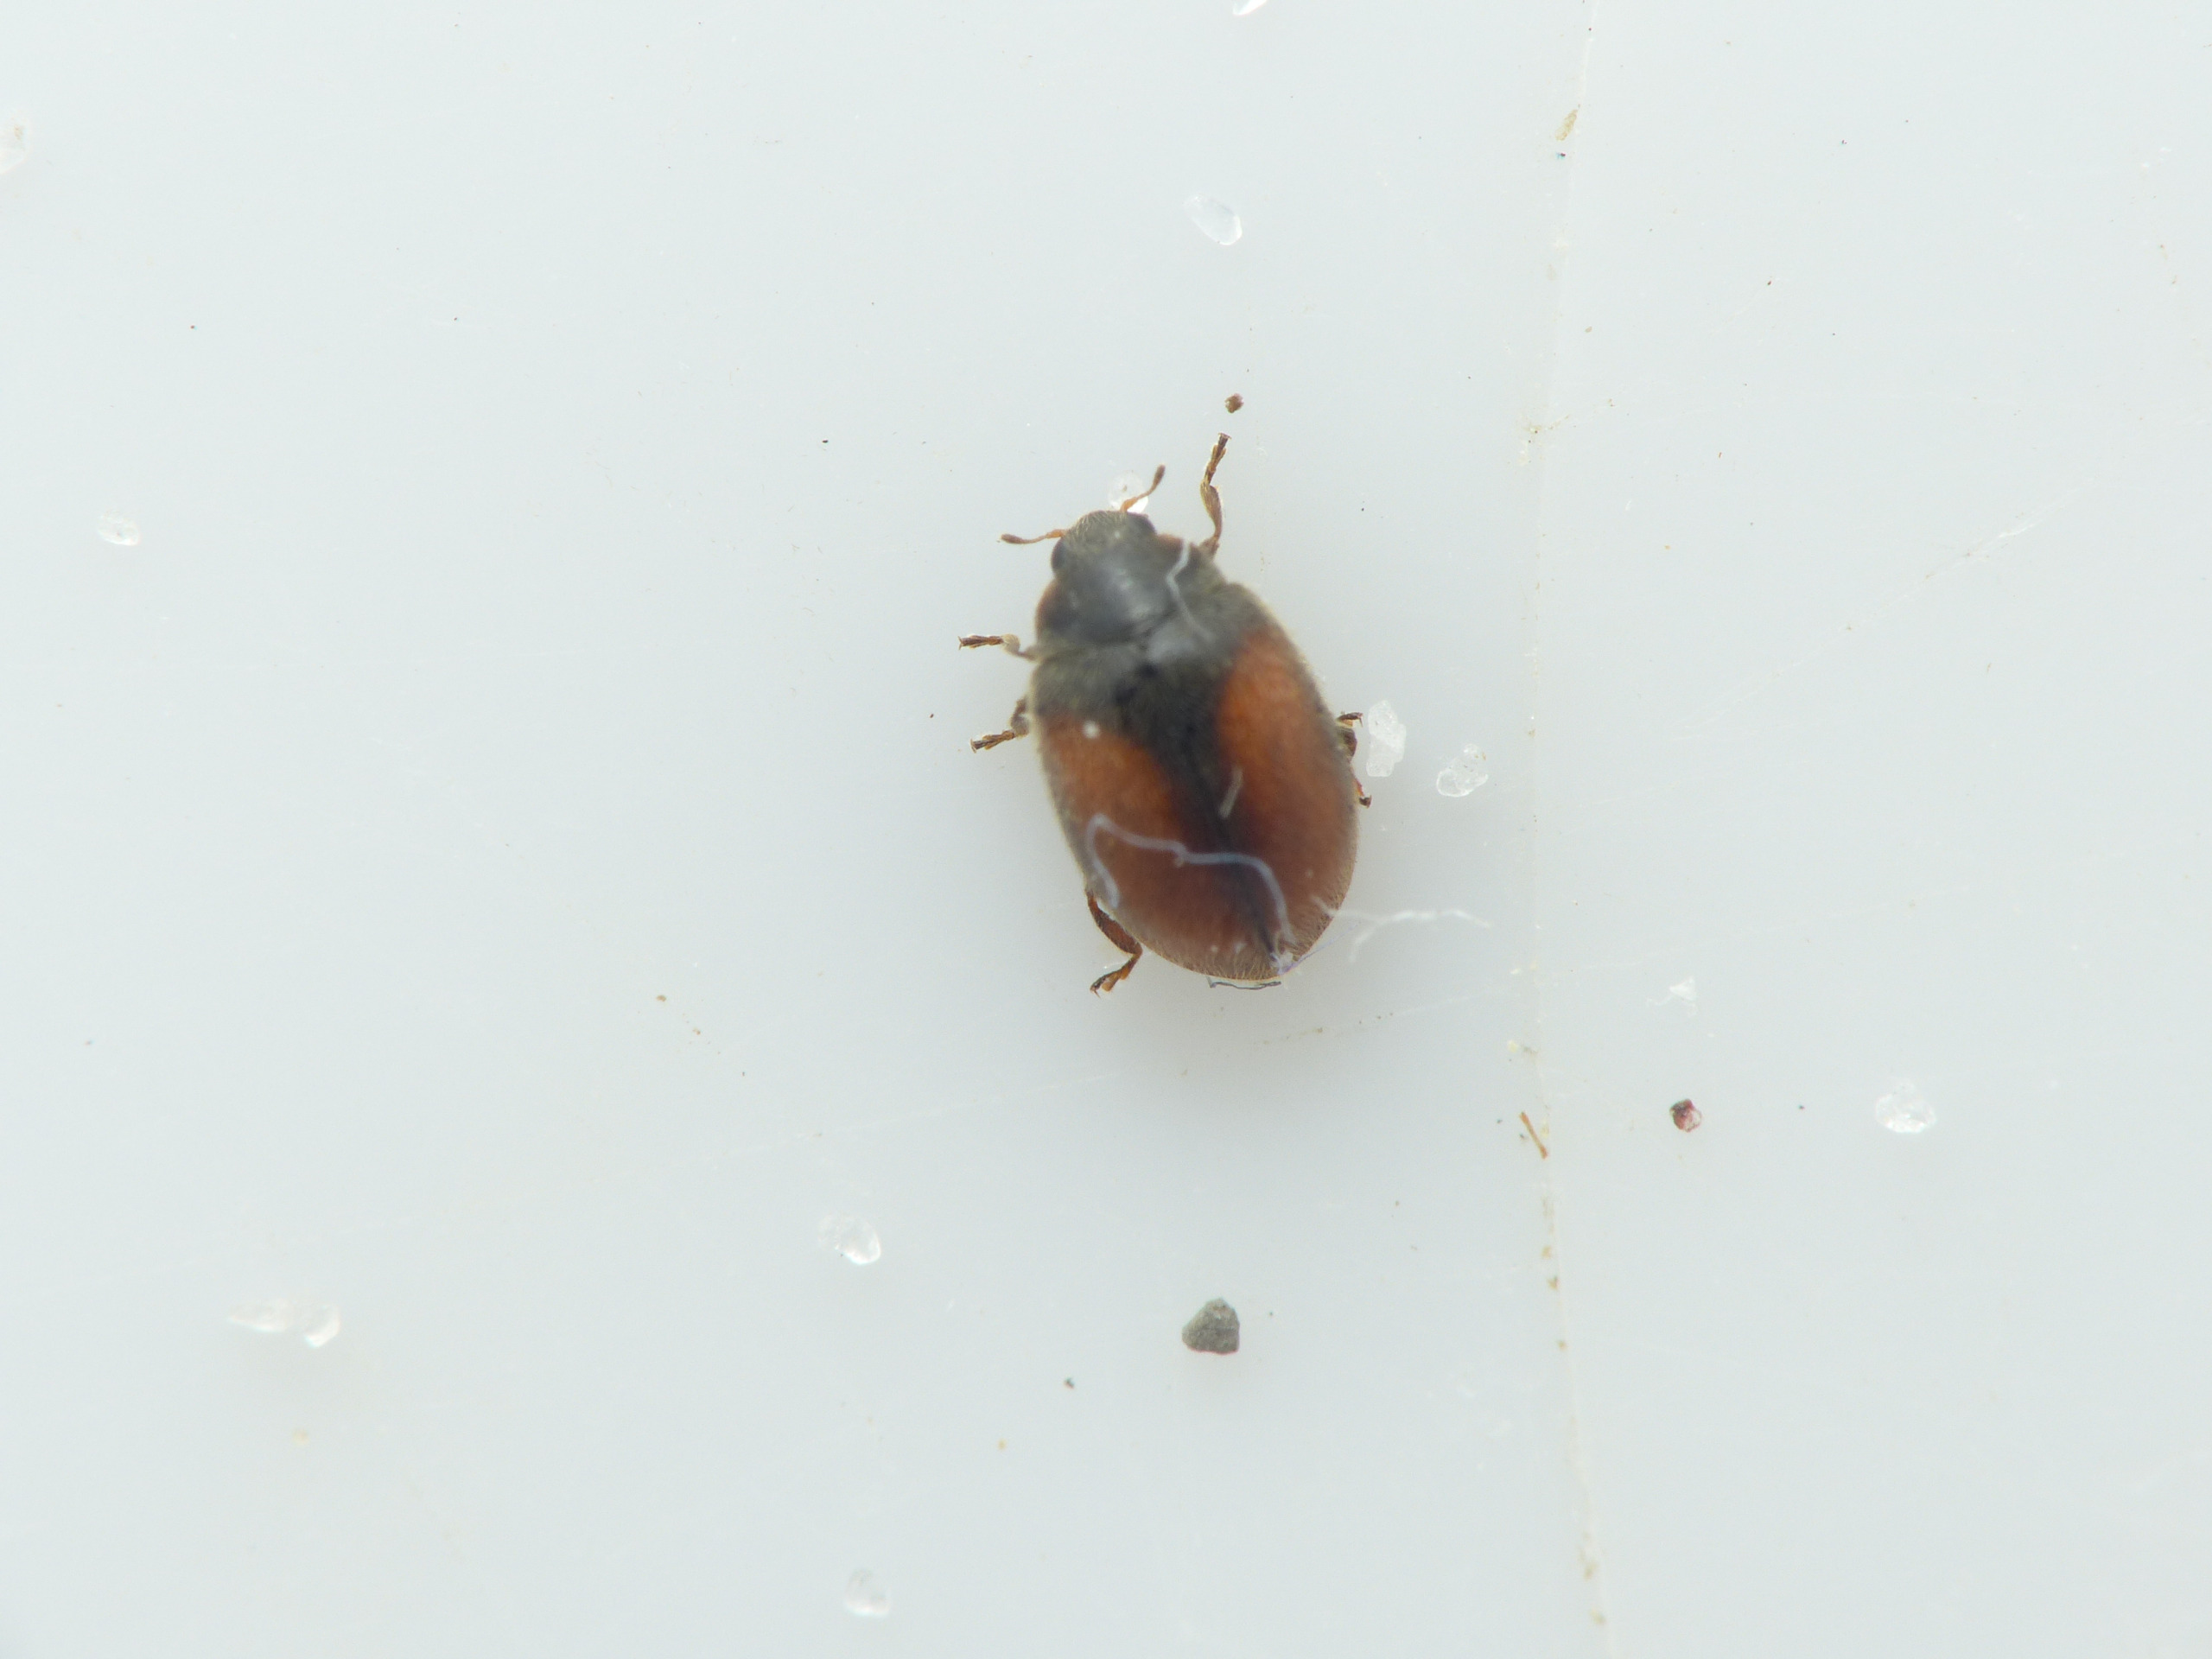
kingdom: Animalia
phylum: Arthropoda
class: Insecta
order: Coleoptera
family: Coccinellidae
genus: Scymnus
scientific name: Scymnus suturalis
